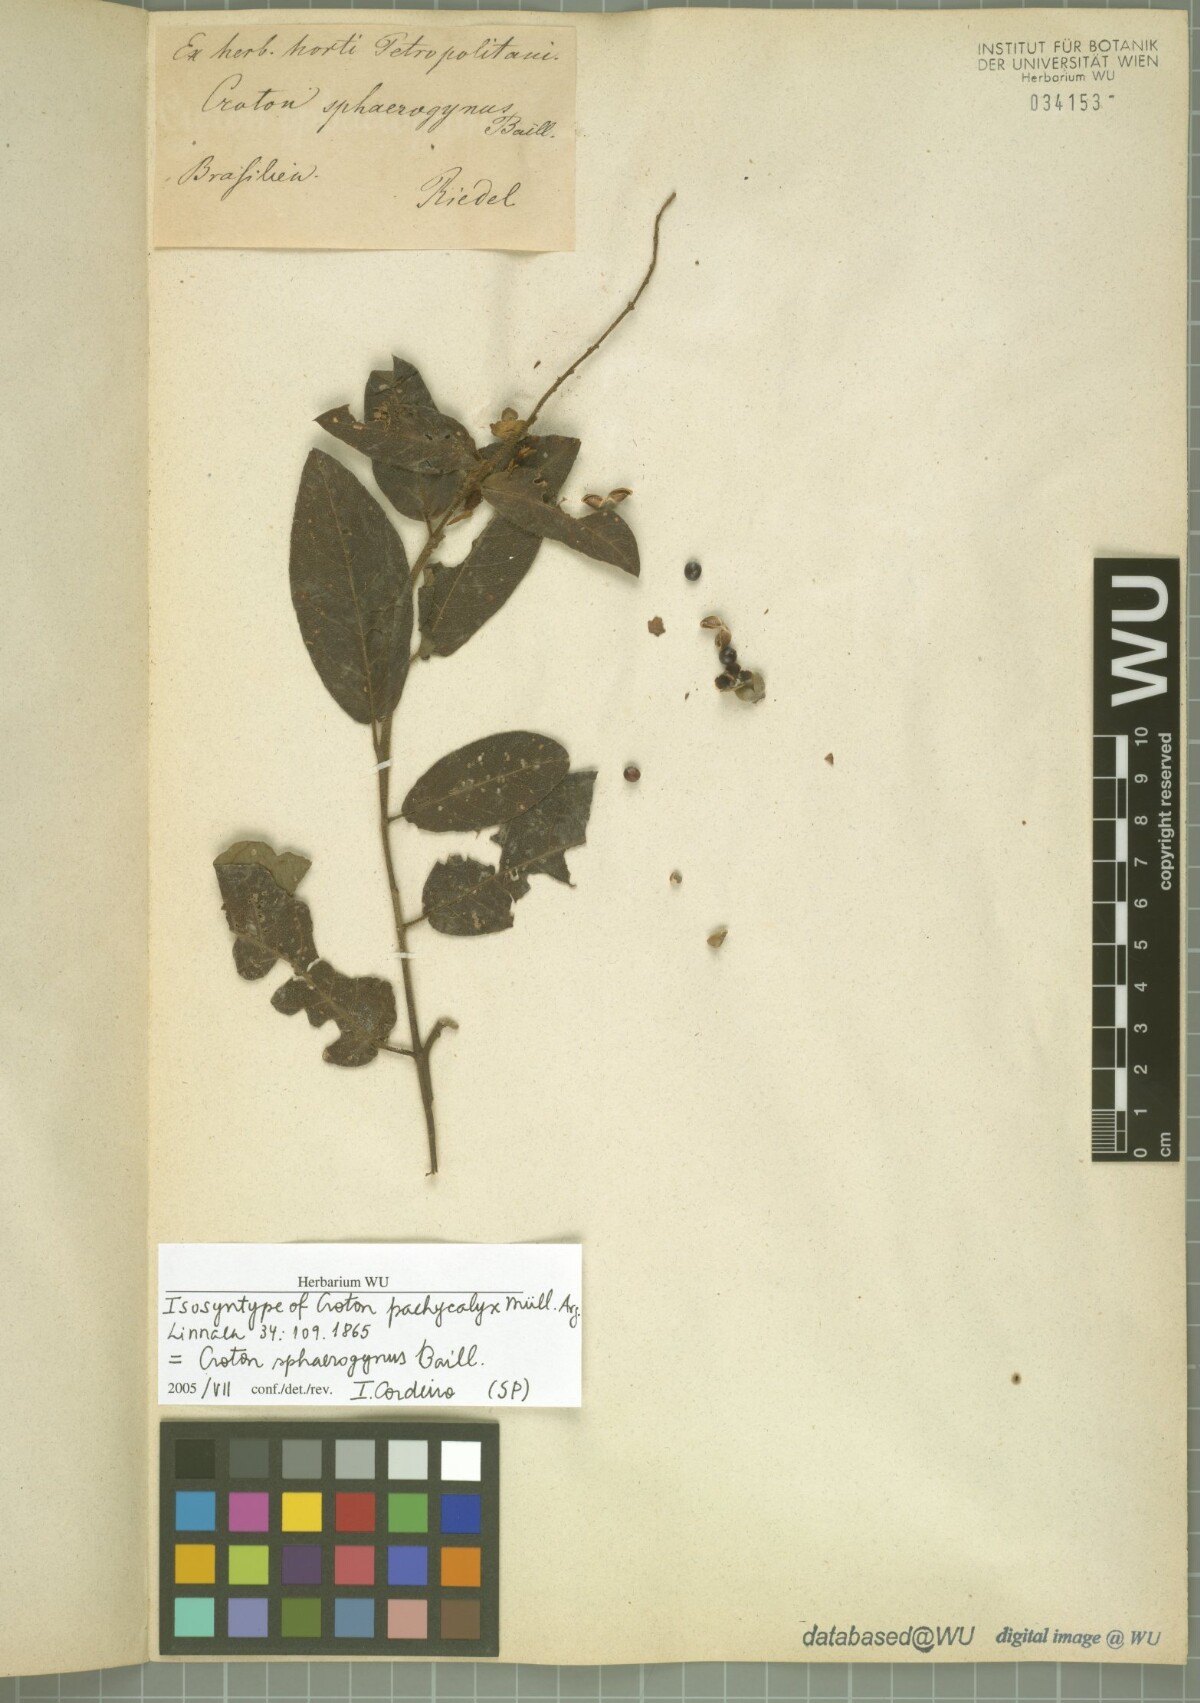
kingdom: Plantae
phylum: Tracheophyta
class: Magnoliopsida
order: Malpighiales
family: Euphorbiaceae
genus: Croton
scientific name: Croton sphaerogynus
